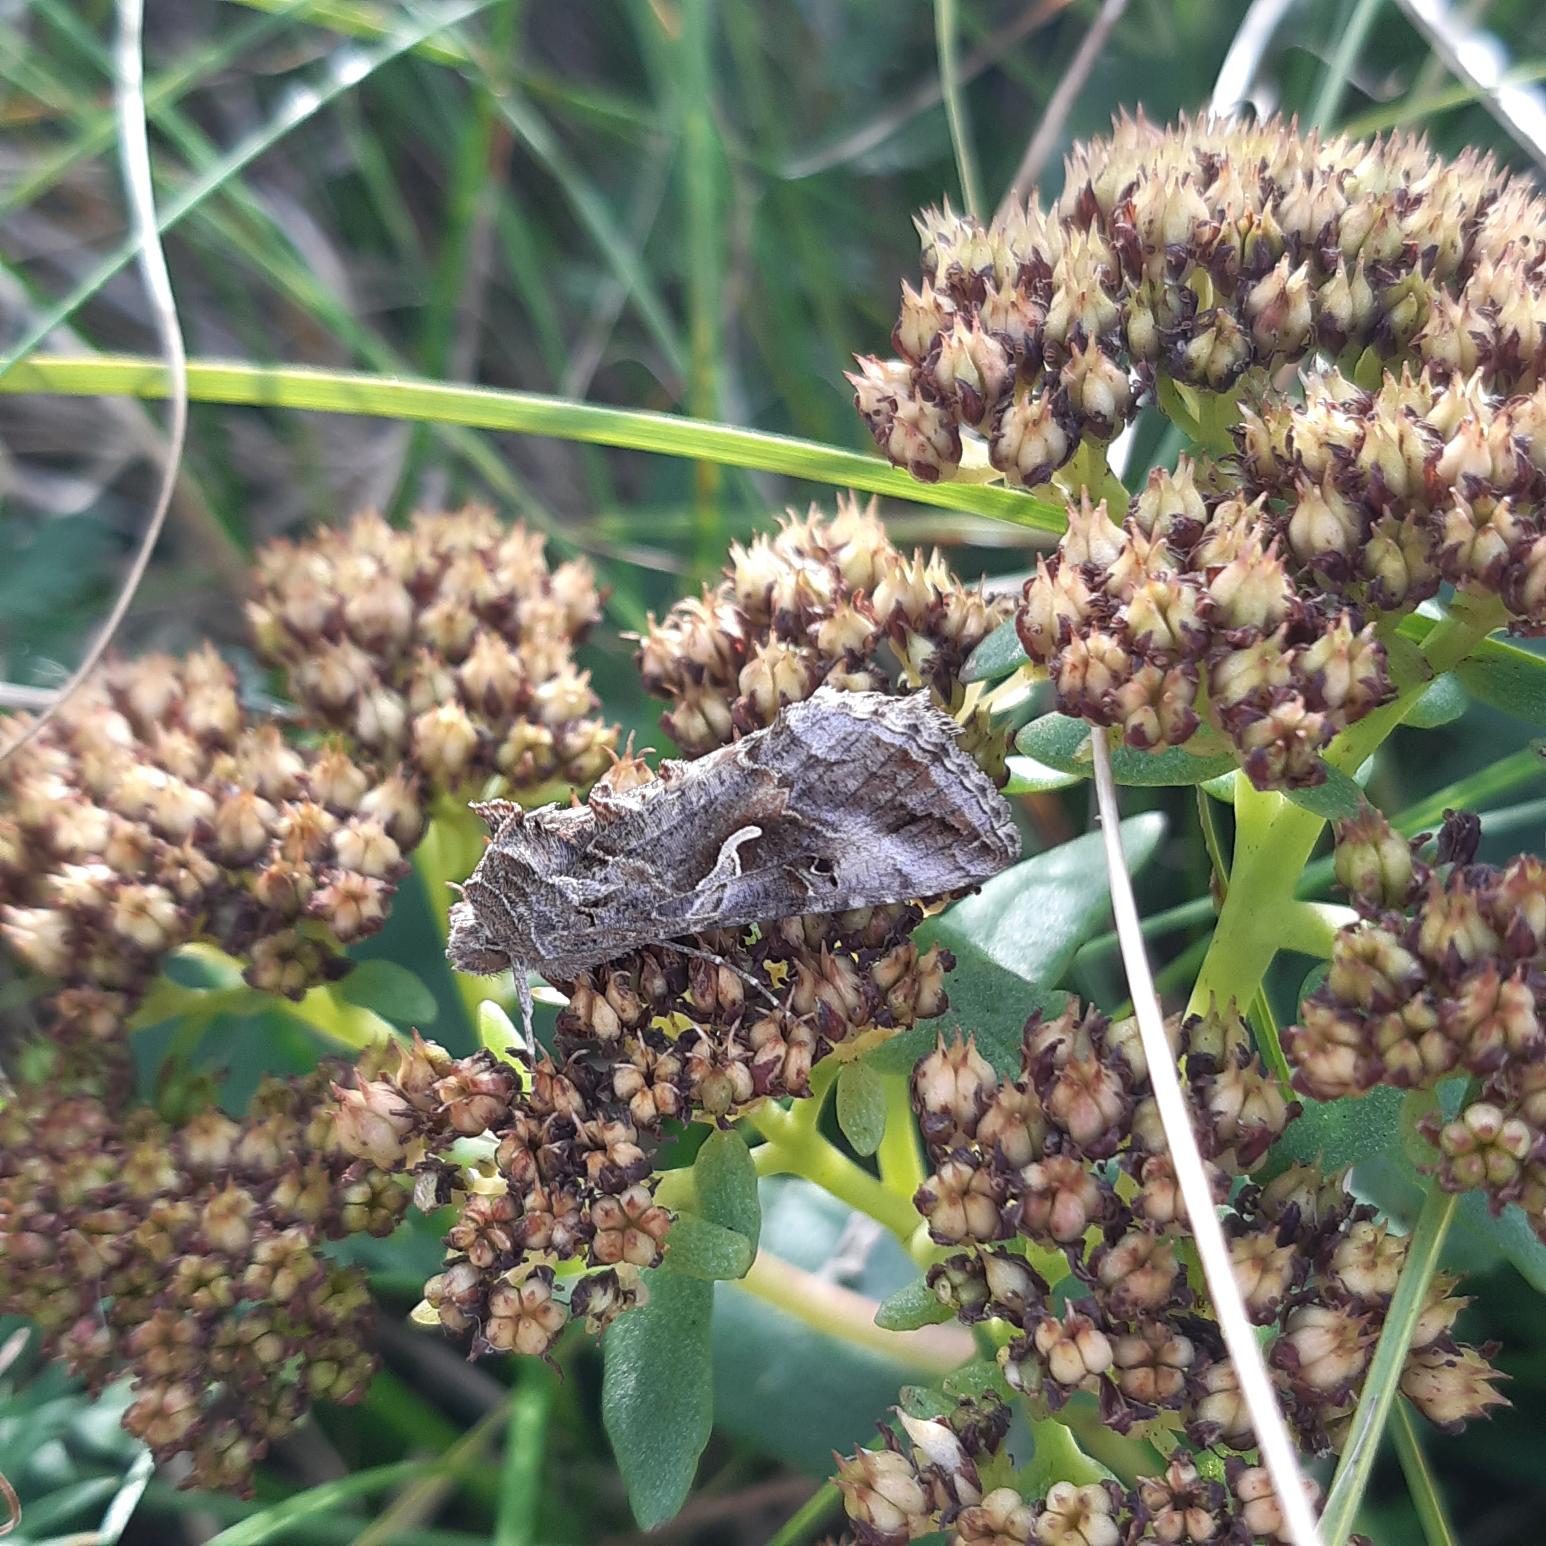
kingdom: Animalia
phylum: Arthropoda
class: Insecta
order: Lepidoptera
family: Noctuidae
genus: Autographa
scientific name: Autographa gamma
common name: Gammaugle
